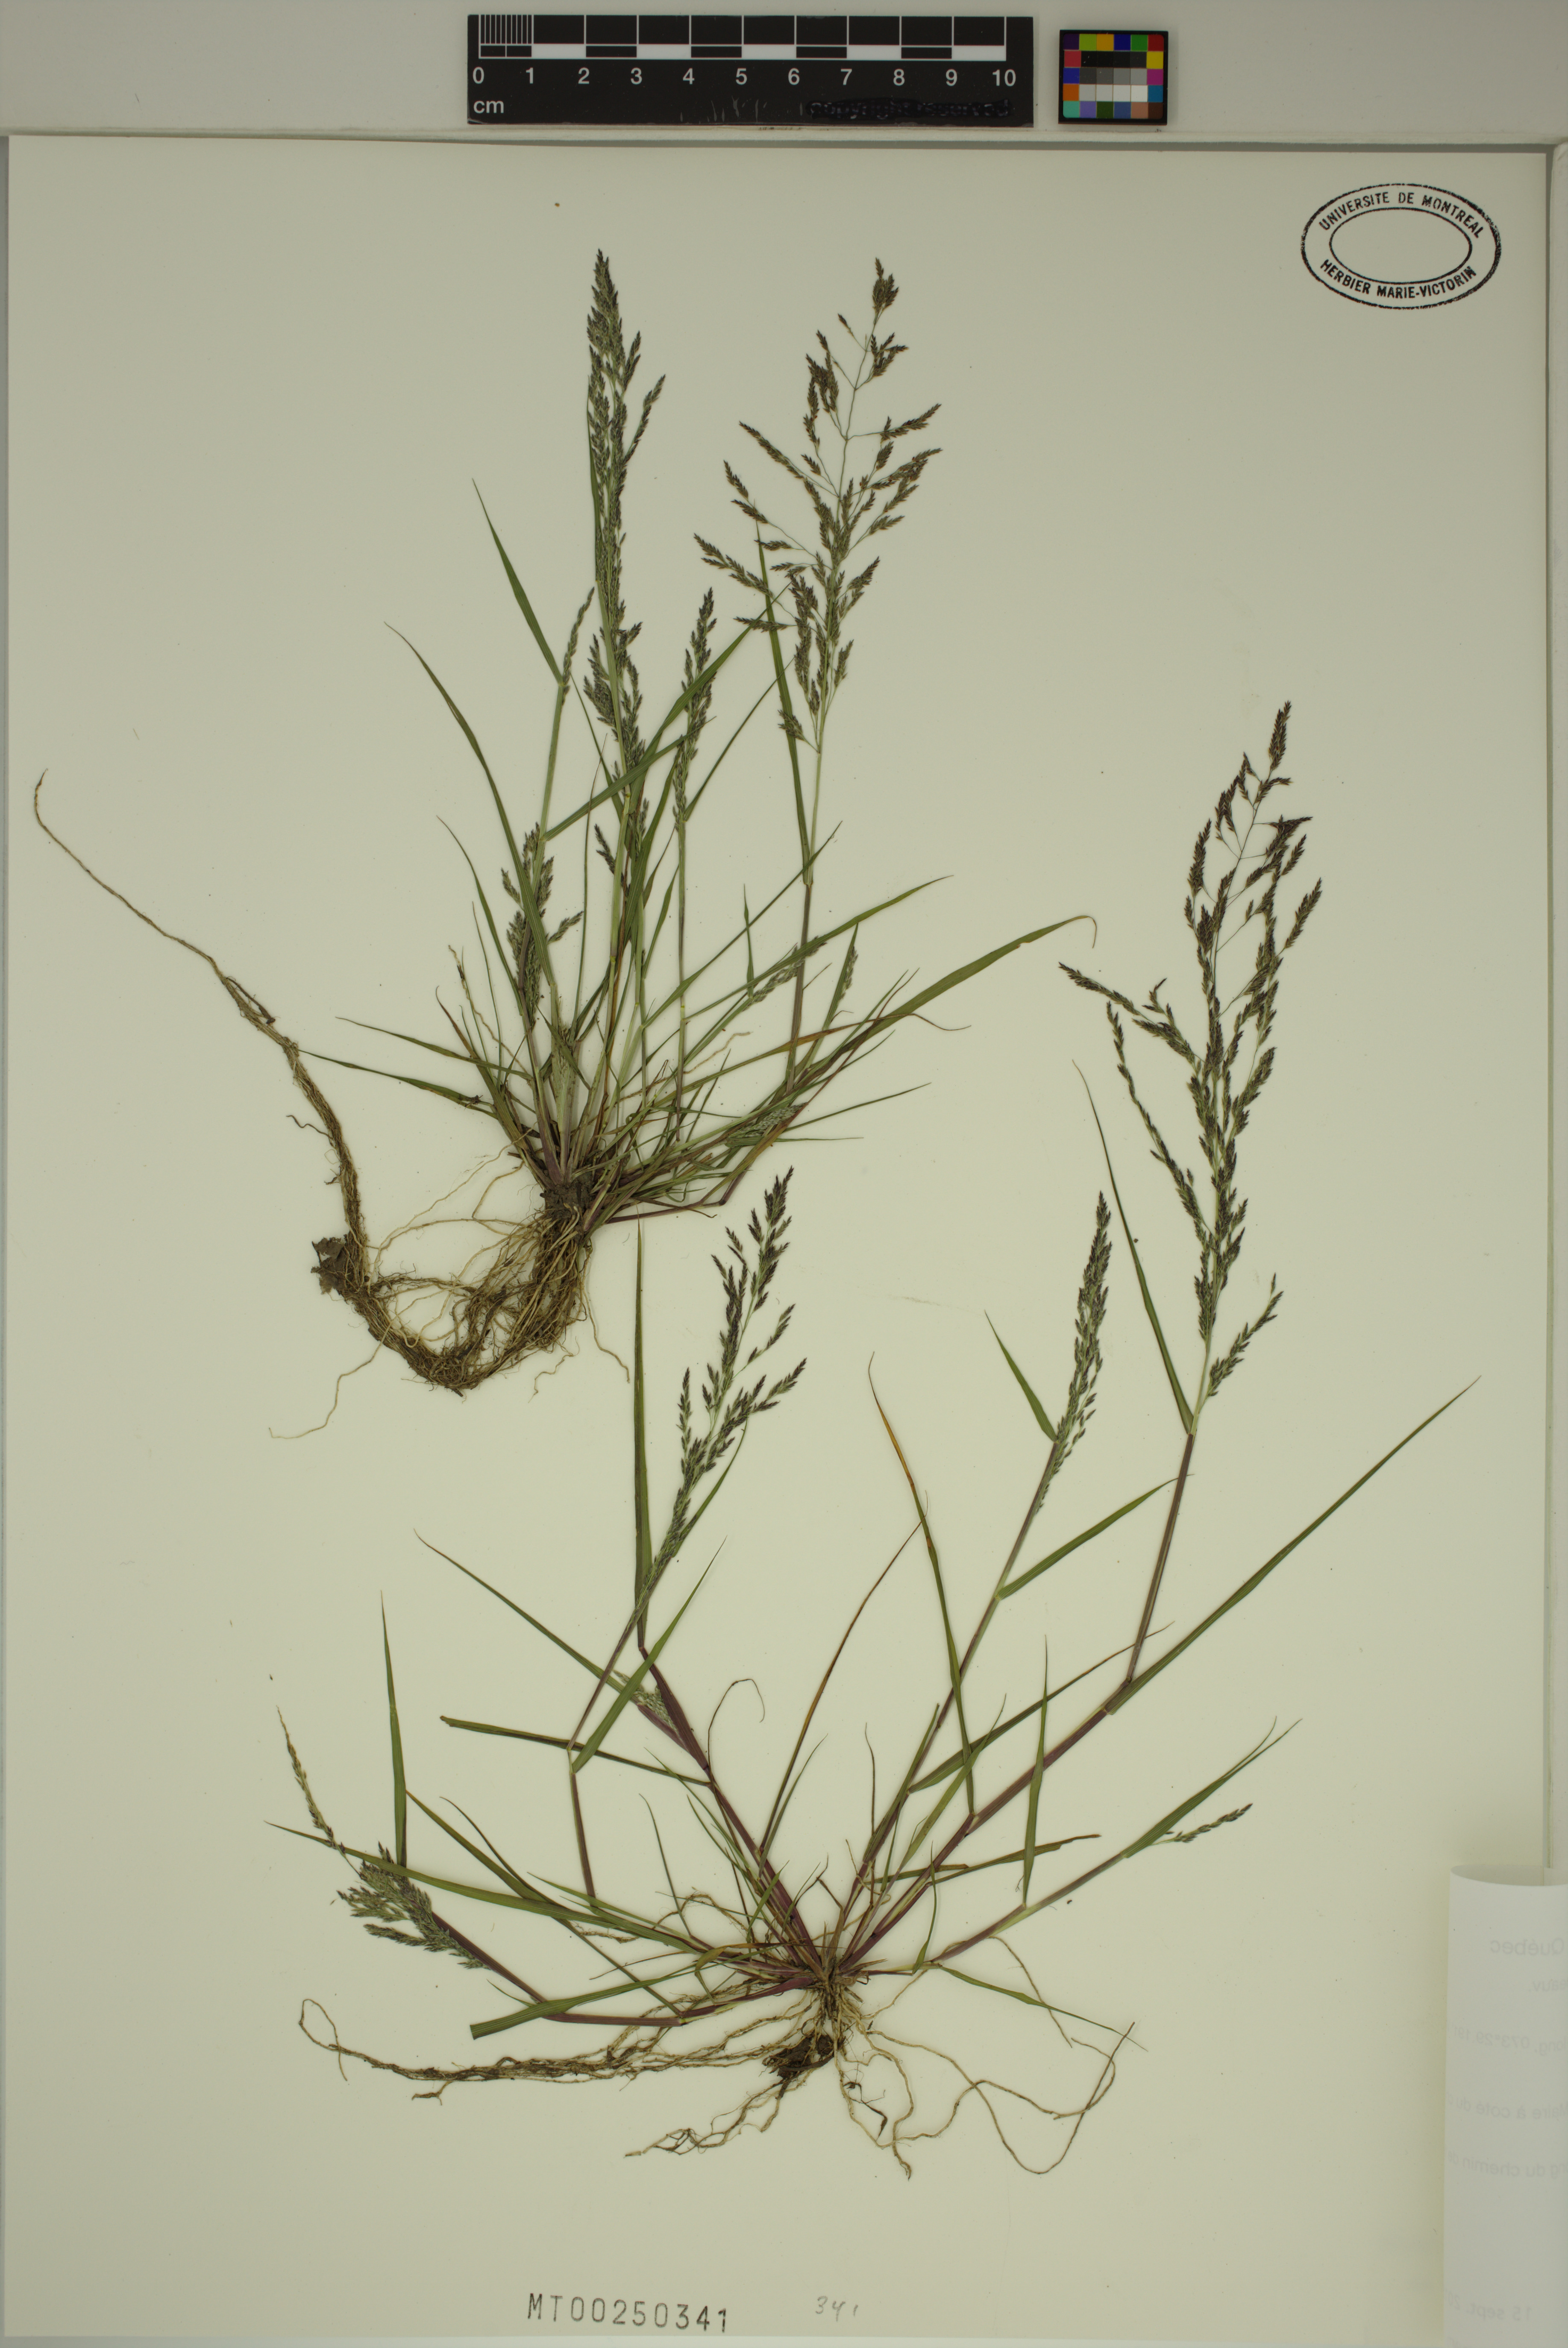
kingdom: Plantae
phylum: Tracheophyta
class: Liliopsida
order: Poales
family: Poaceae
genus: Eragrostis
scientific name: Eragrostis pilosa
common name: Indian lovegrass
